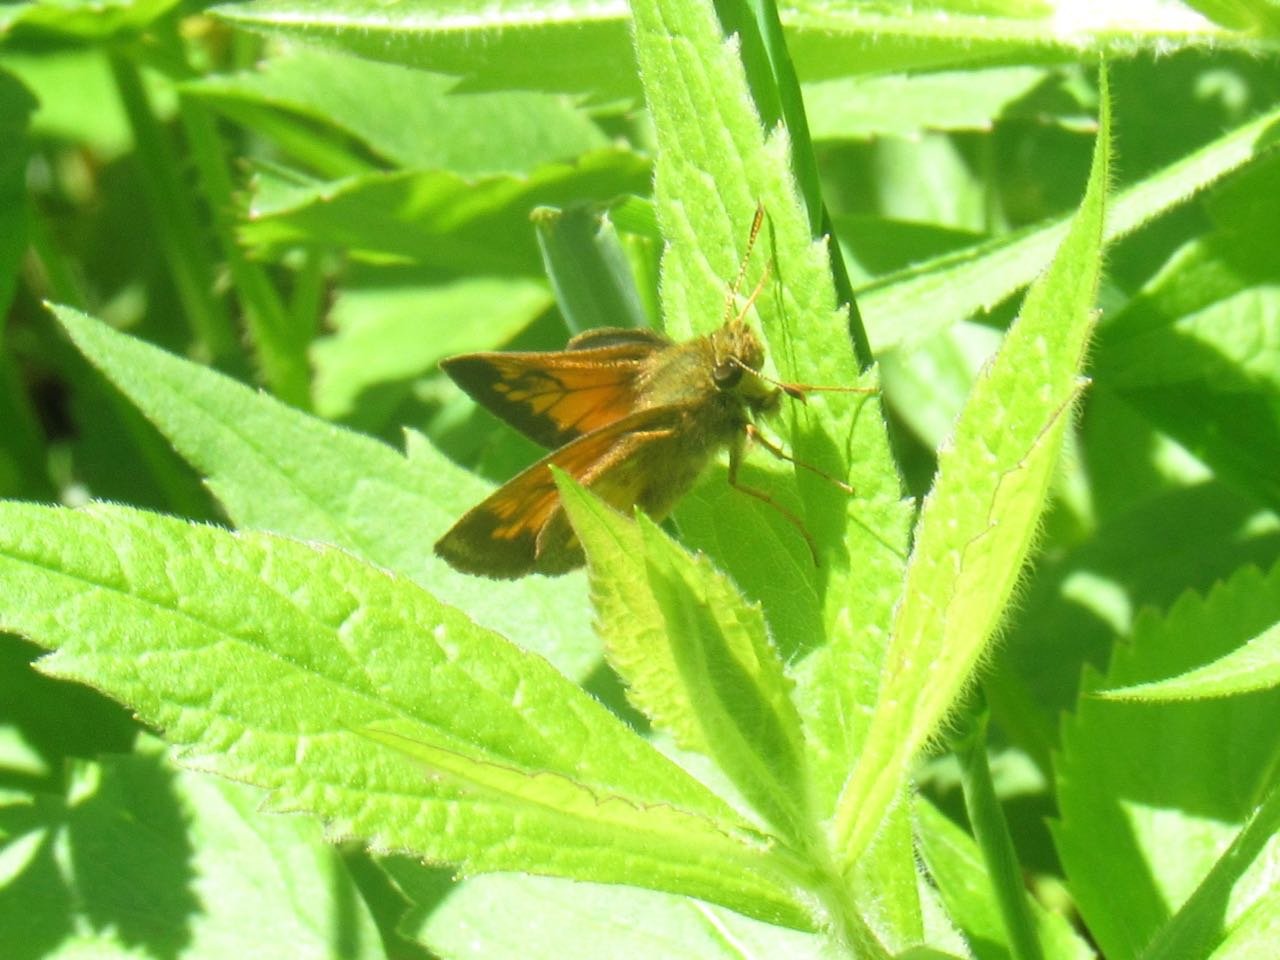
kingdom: Animalia
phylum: Arthropoda
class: Insecta
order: Lepidoptera
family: Hesperiidae
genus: Lon
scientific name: Lon hobomok
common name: Hobomok Skipper
